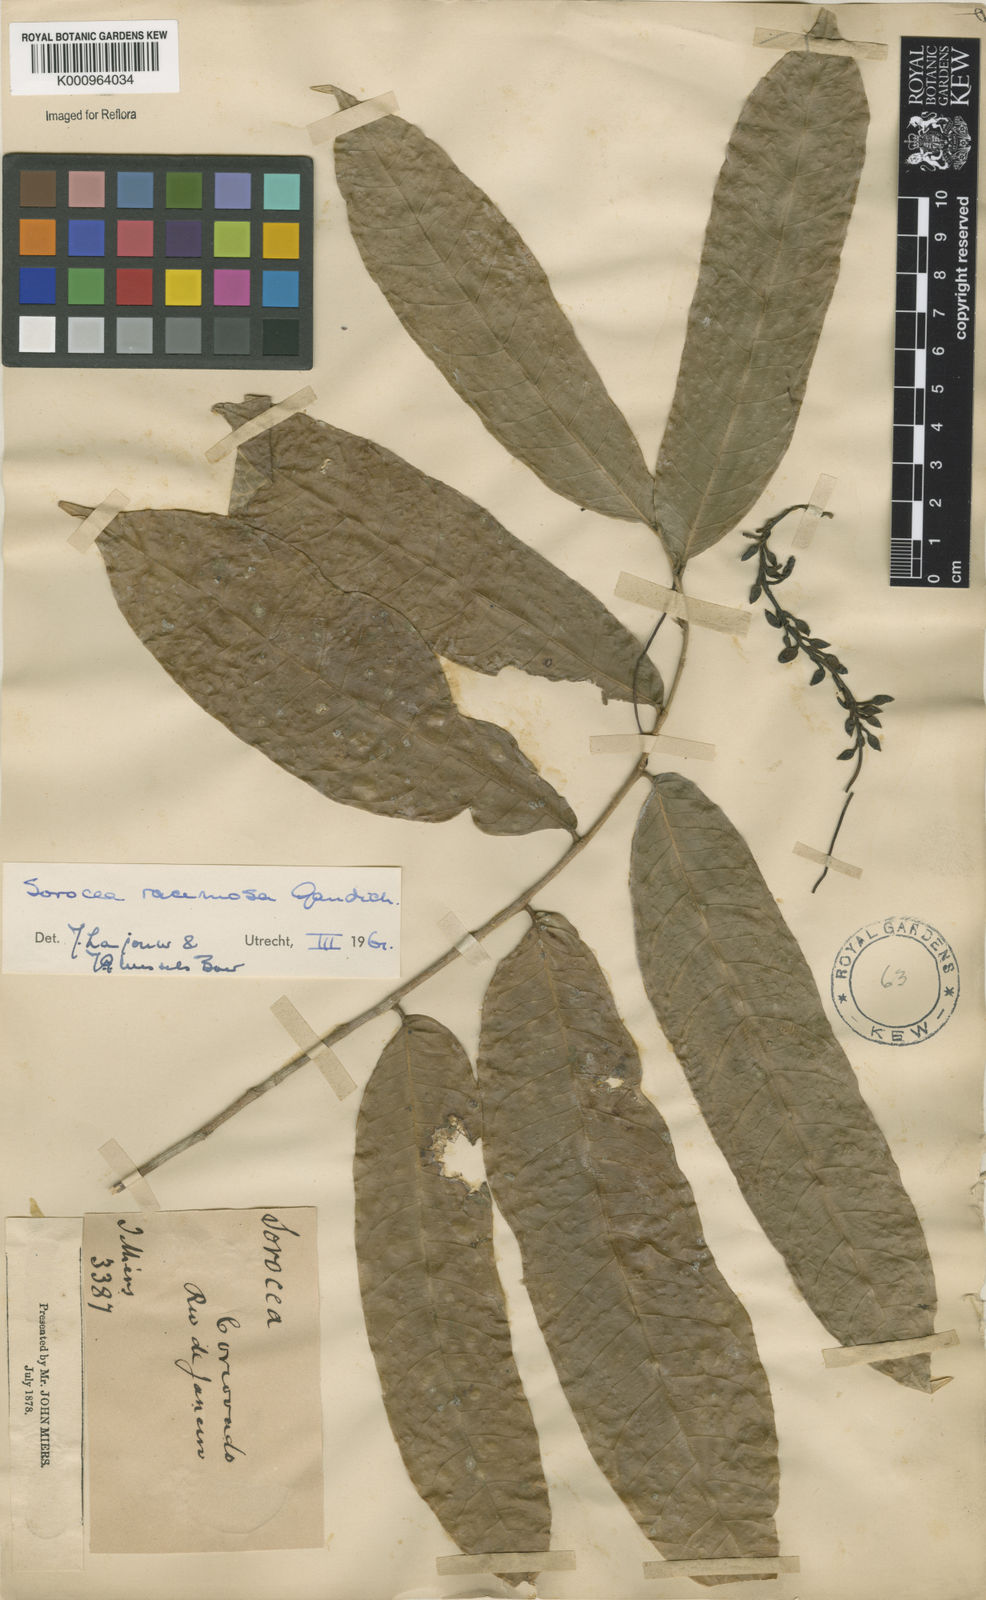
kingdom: Plantae
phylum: Tracheophyta
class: Magnoliopsida
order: Rosales
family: Moraceae
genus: Sorocea
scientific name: Sorocea hilarii
